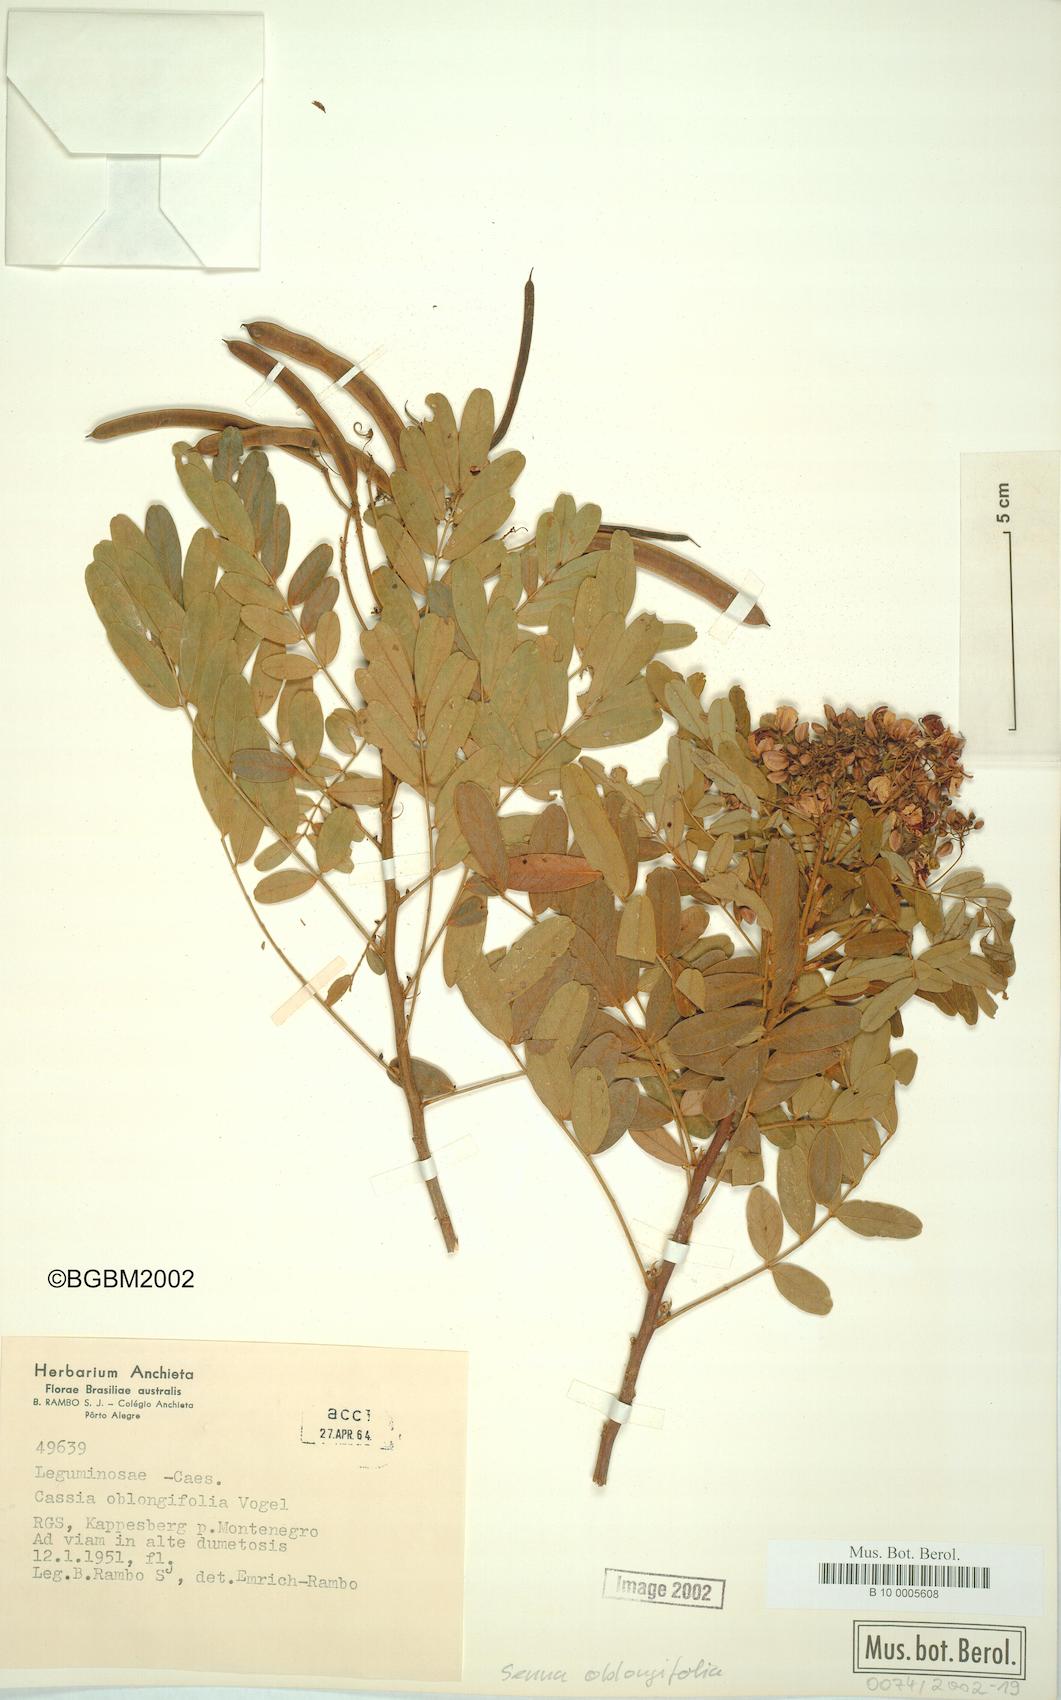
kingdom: Plantae
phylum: Tracheophyta
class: Magnoliopsida
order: Fabales
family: Fabaceae
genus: Senna
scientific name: Senna oblongifolia
